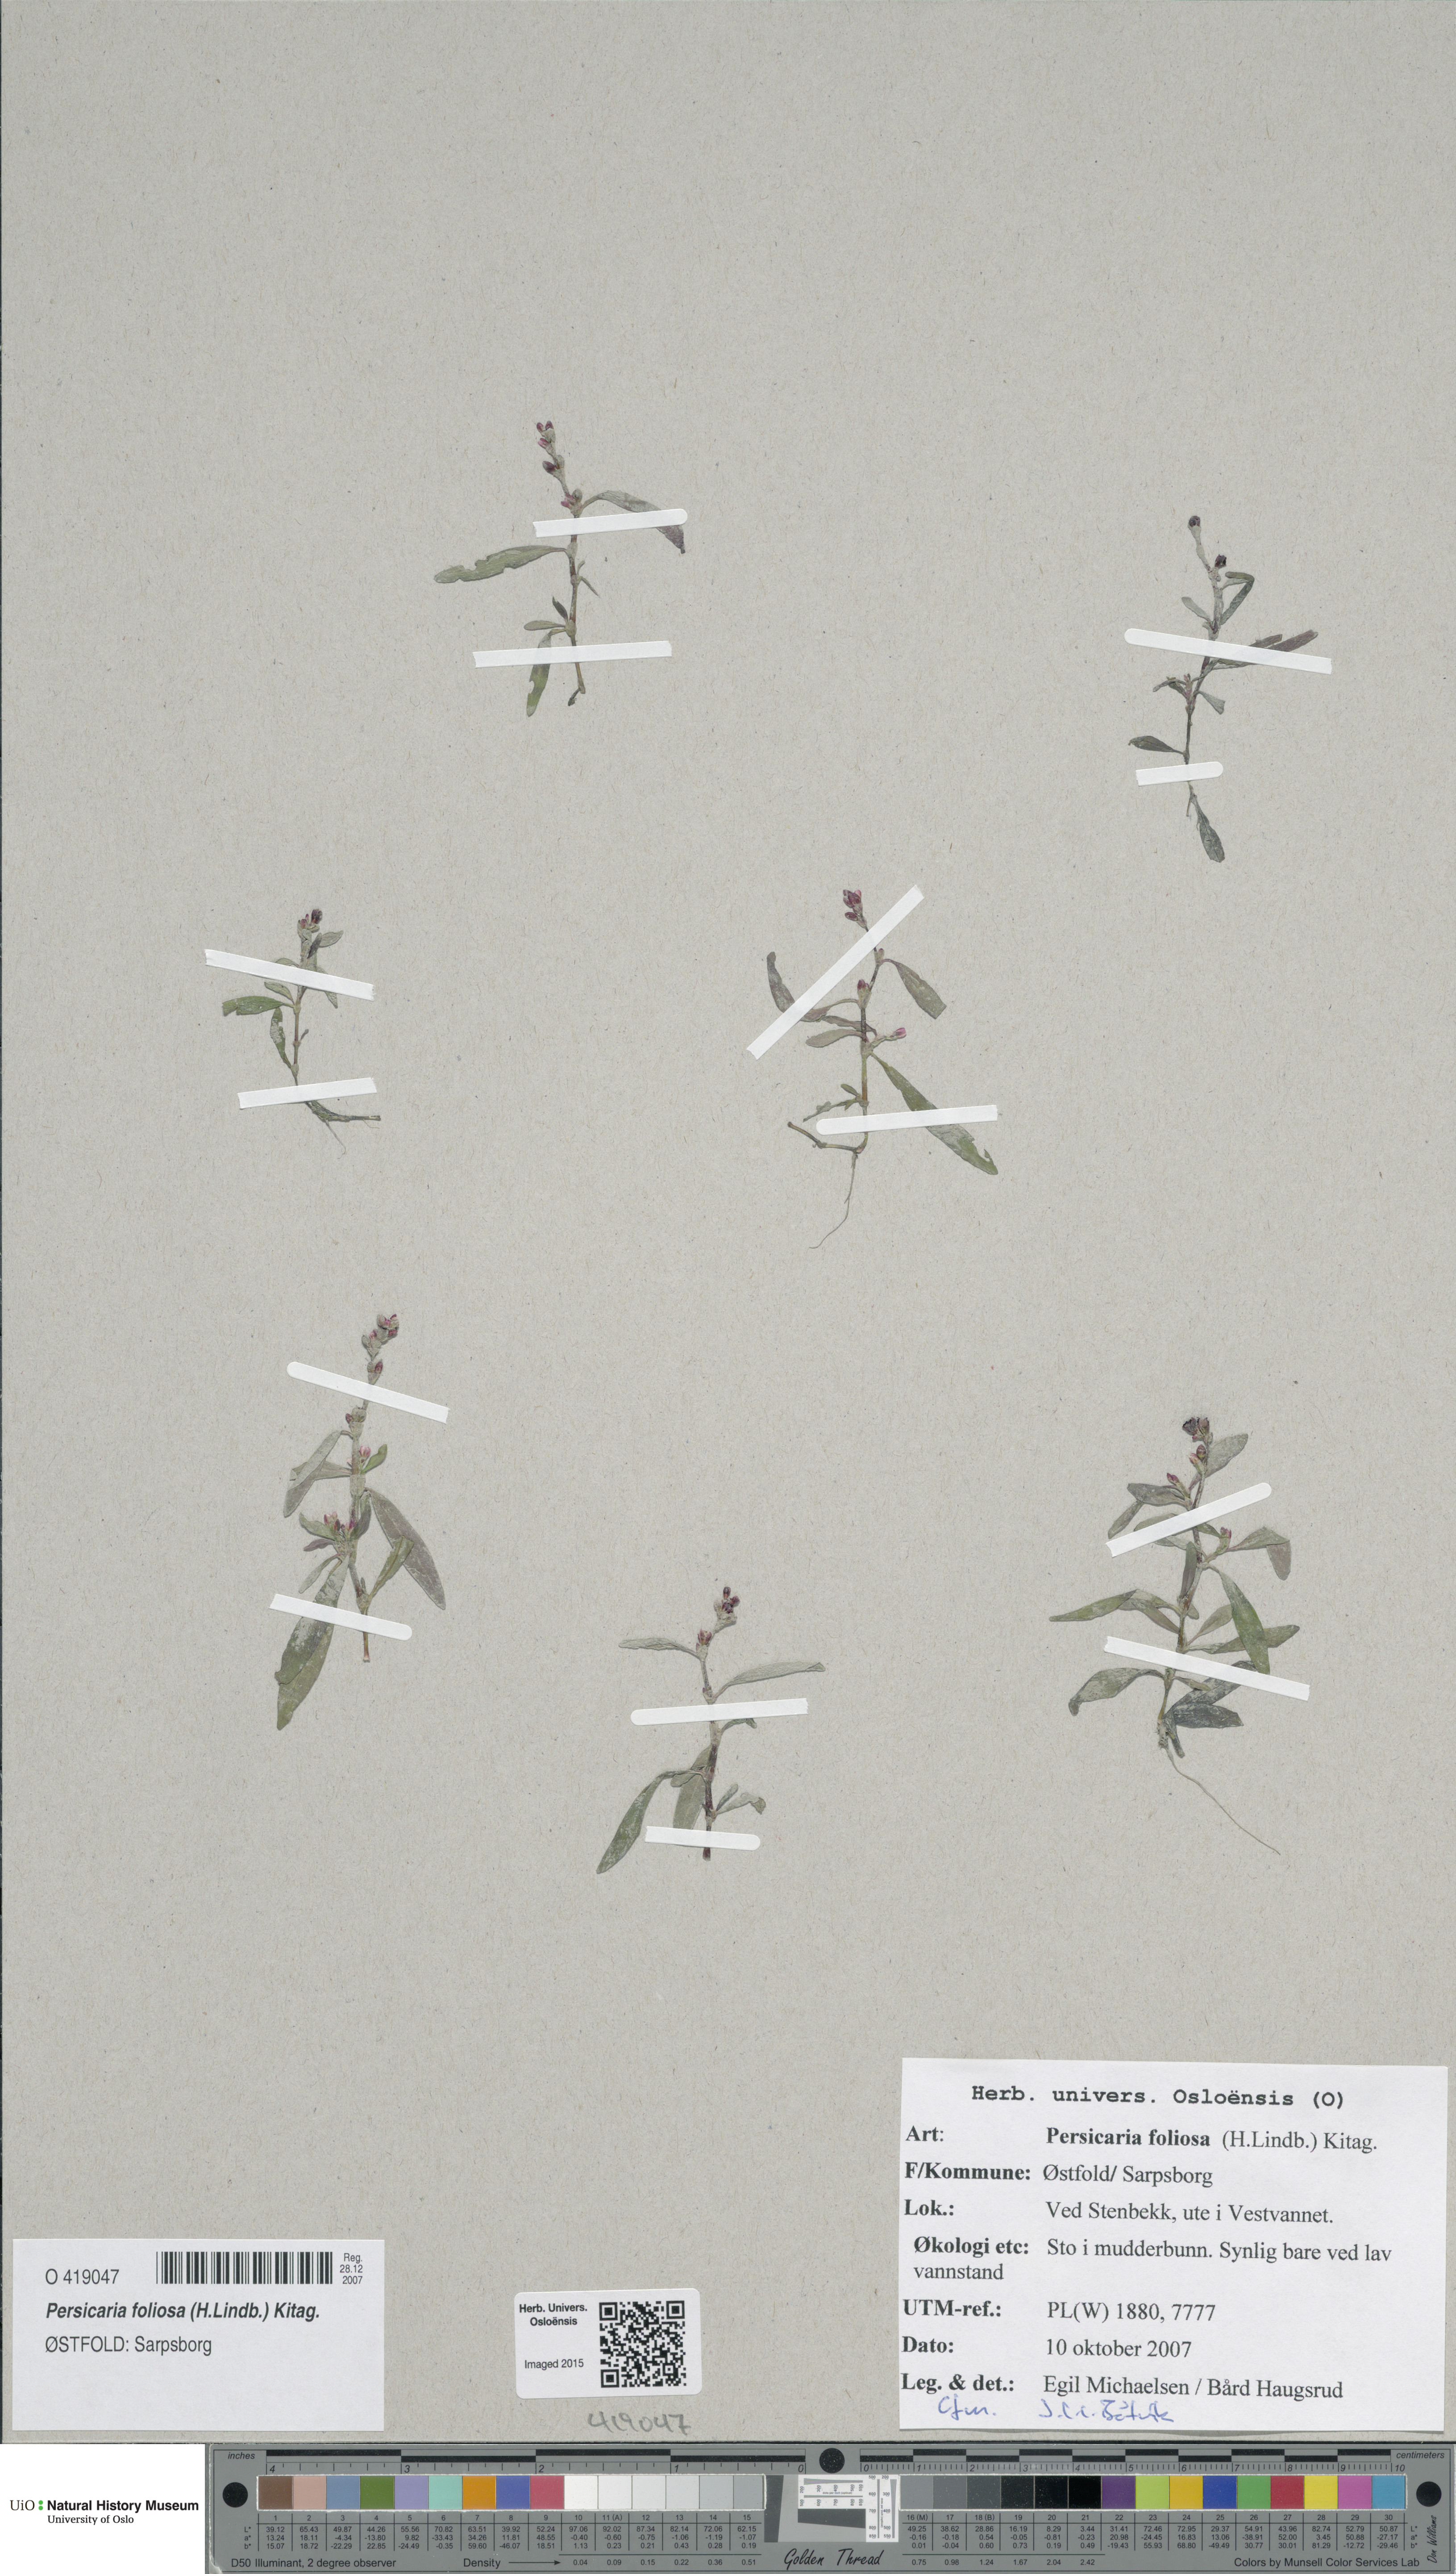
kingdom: Plantae
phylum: Tracheophyta
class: Magnoliopsida
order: Caryophyllales
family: Polygonaceae
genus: Persicaria
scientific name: Persicaria foliosa
